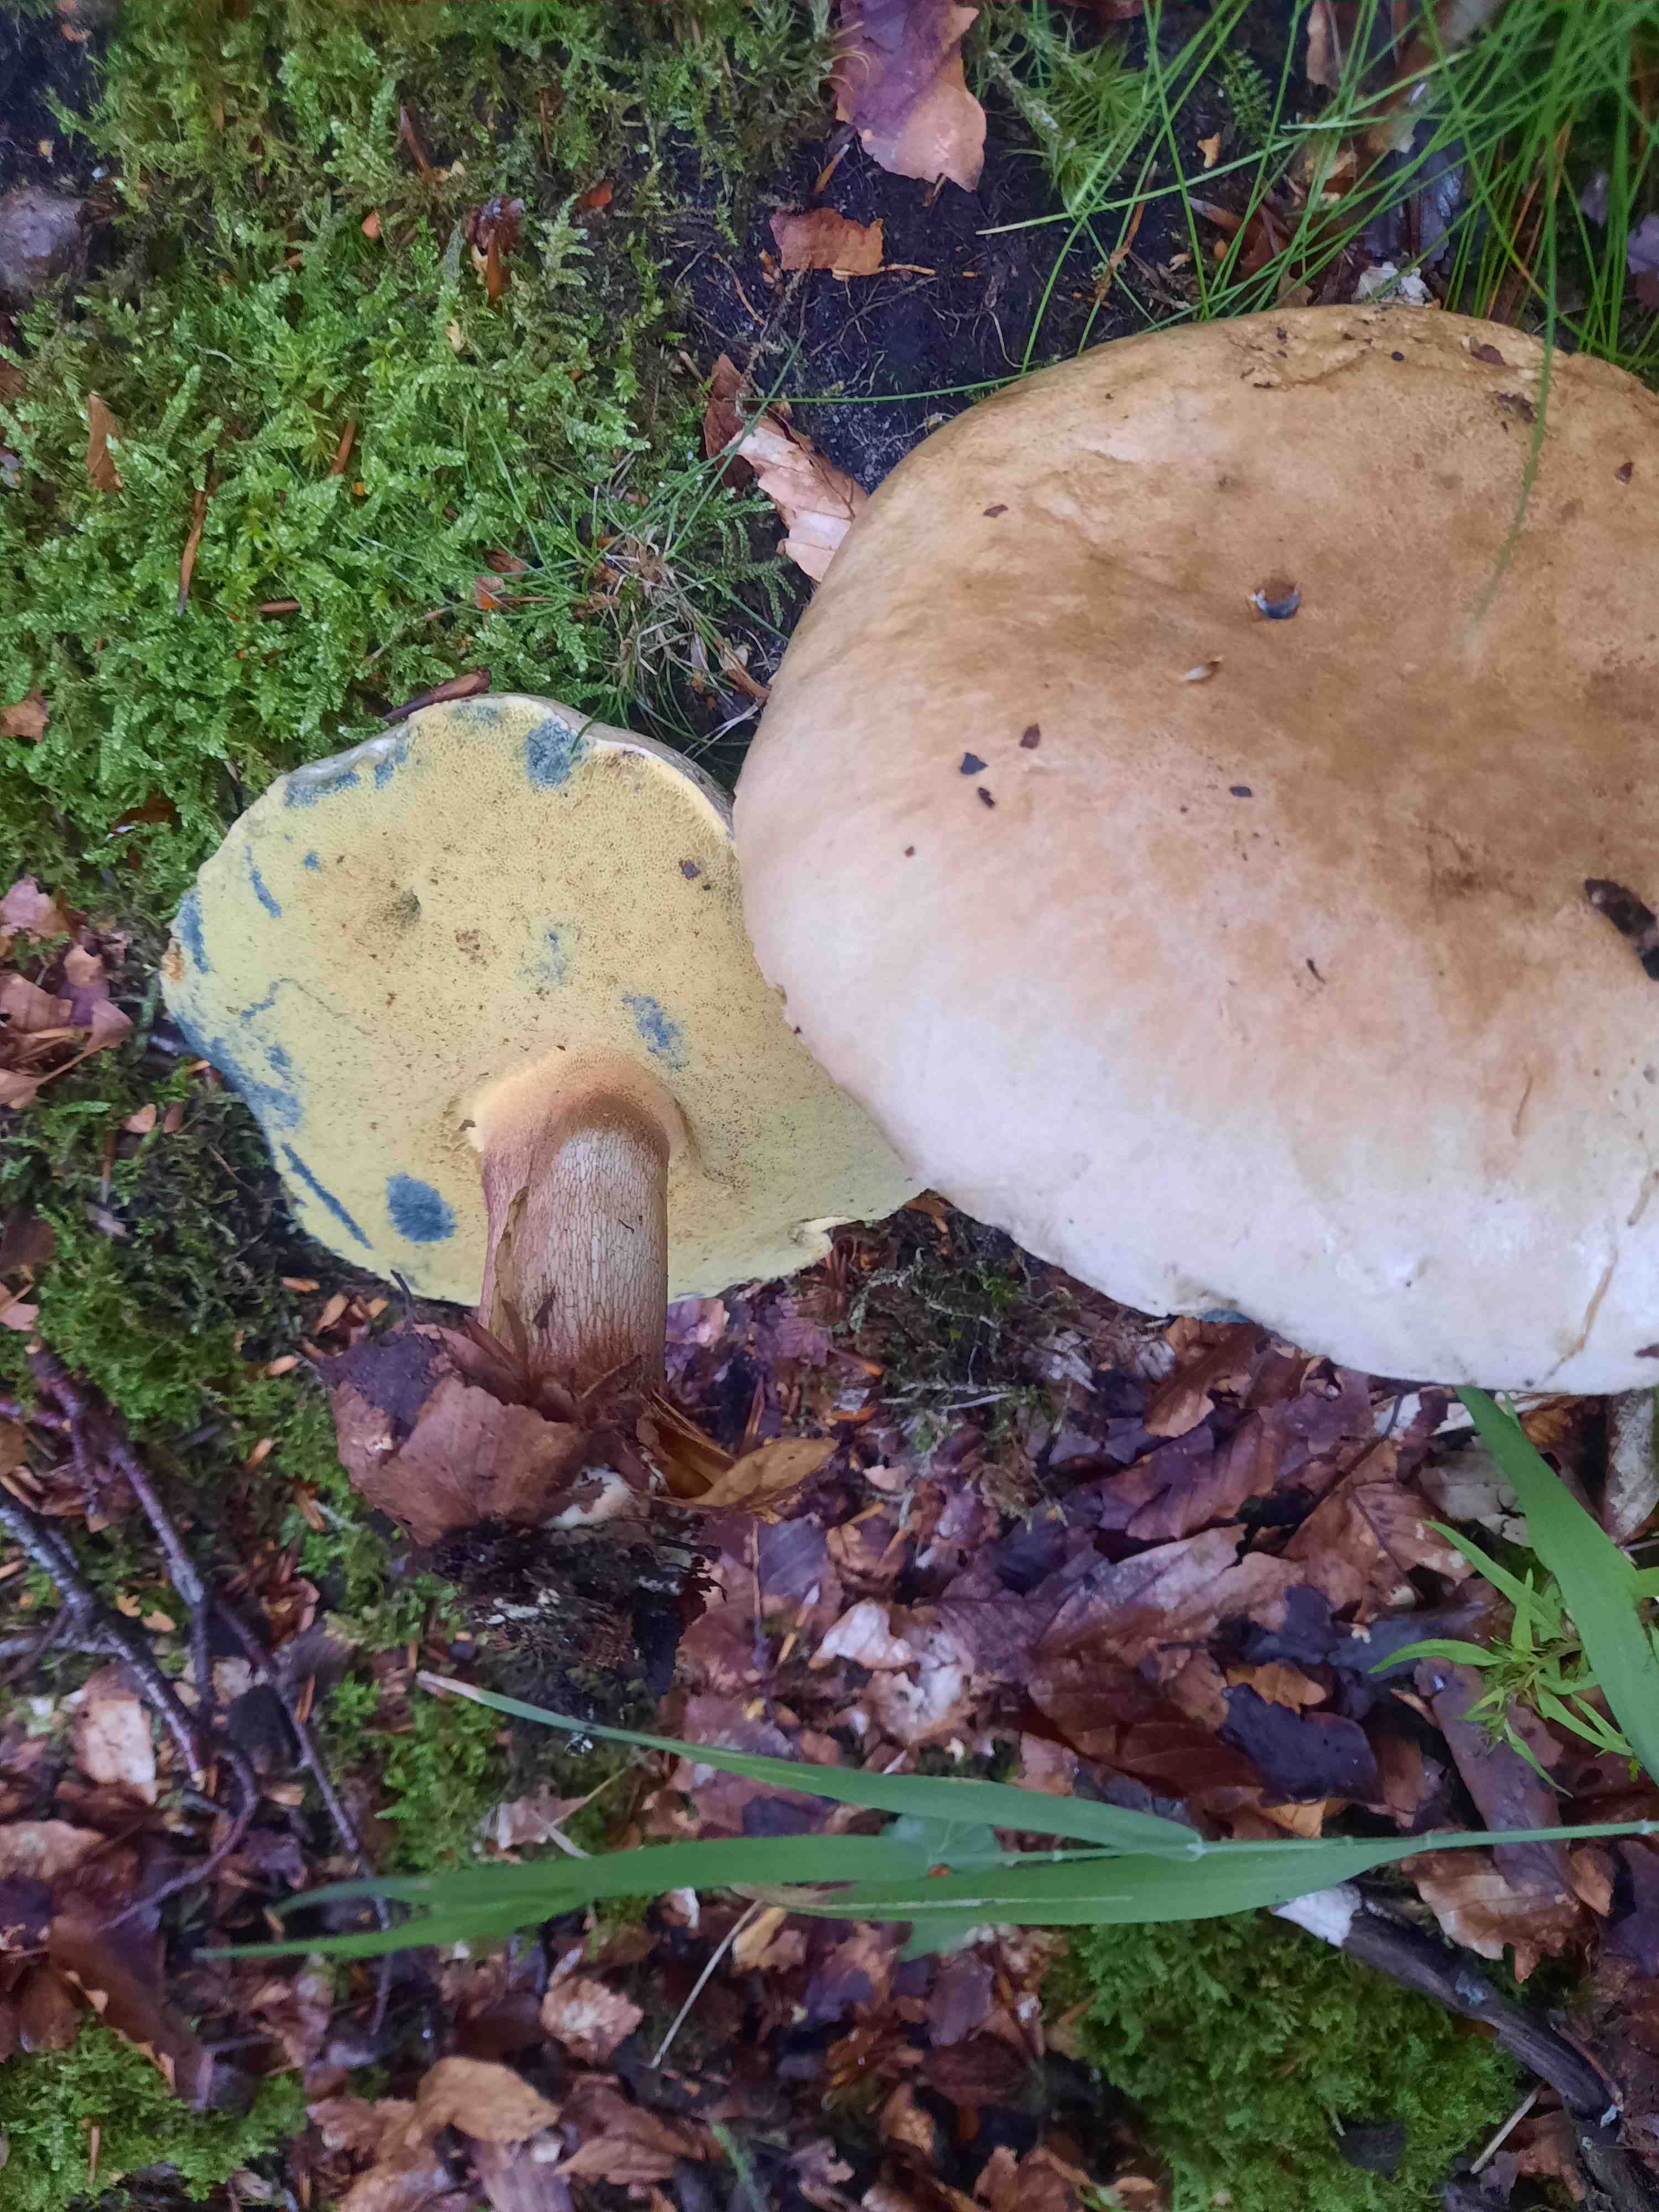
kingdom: Fungi
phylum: Basidiomycota
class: Agaricomycetes
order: Boletales
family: Boletaceae
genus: Caloboletus
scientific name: Caloboletus calopus
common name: skønfodet rørhat
